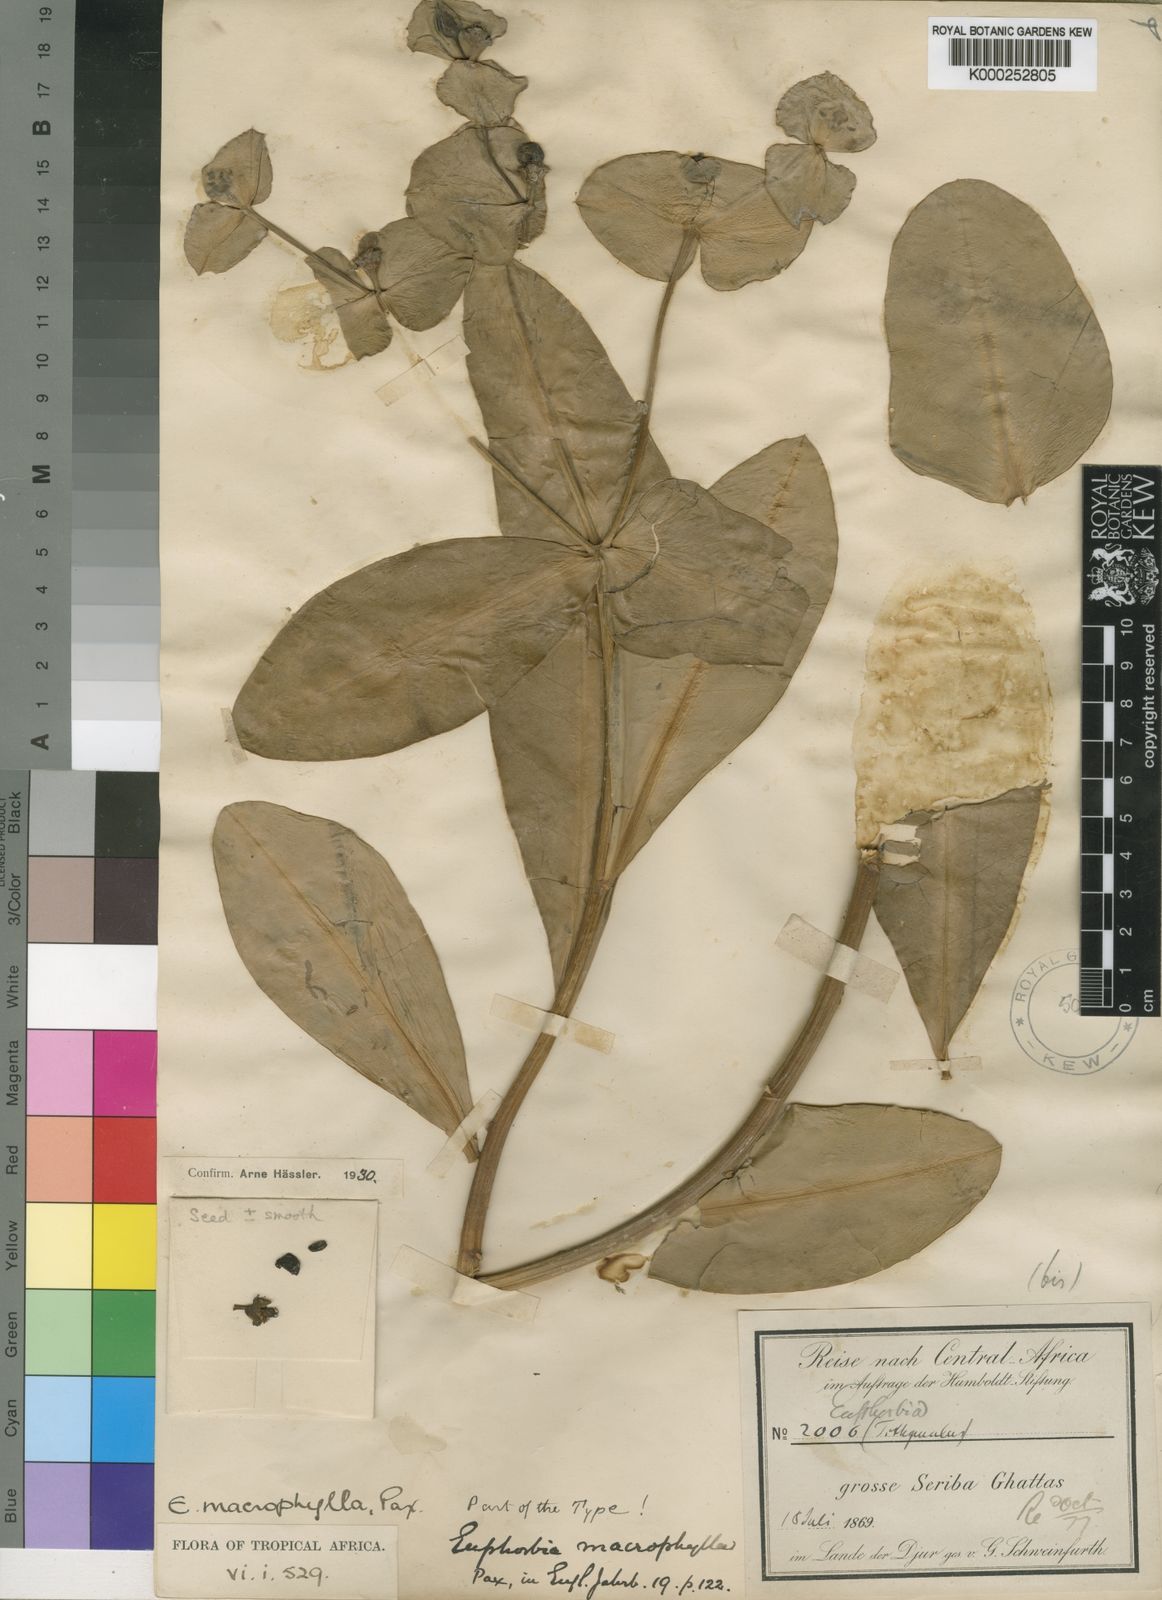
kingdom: Plantae
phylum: Tracheophyta
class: Magnoliopsida
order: Malpighiales
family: Euphorbiaceae
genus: Euphorbia
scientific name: Euphorbia macrophylla
